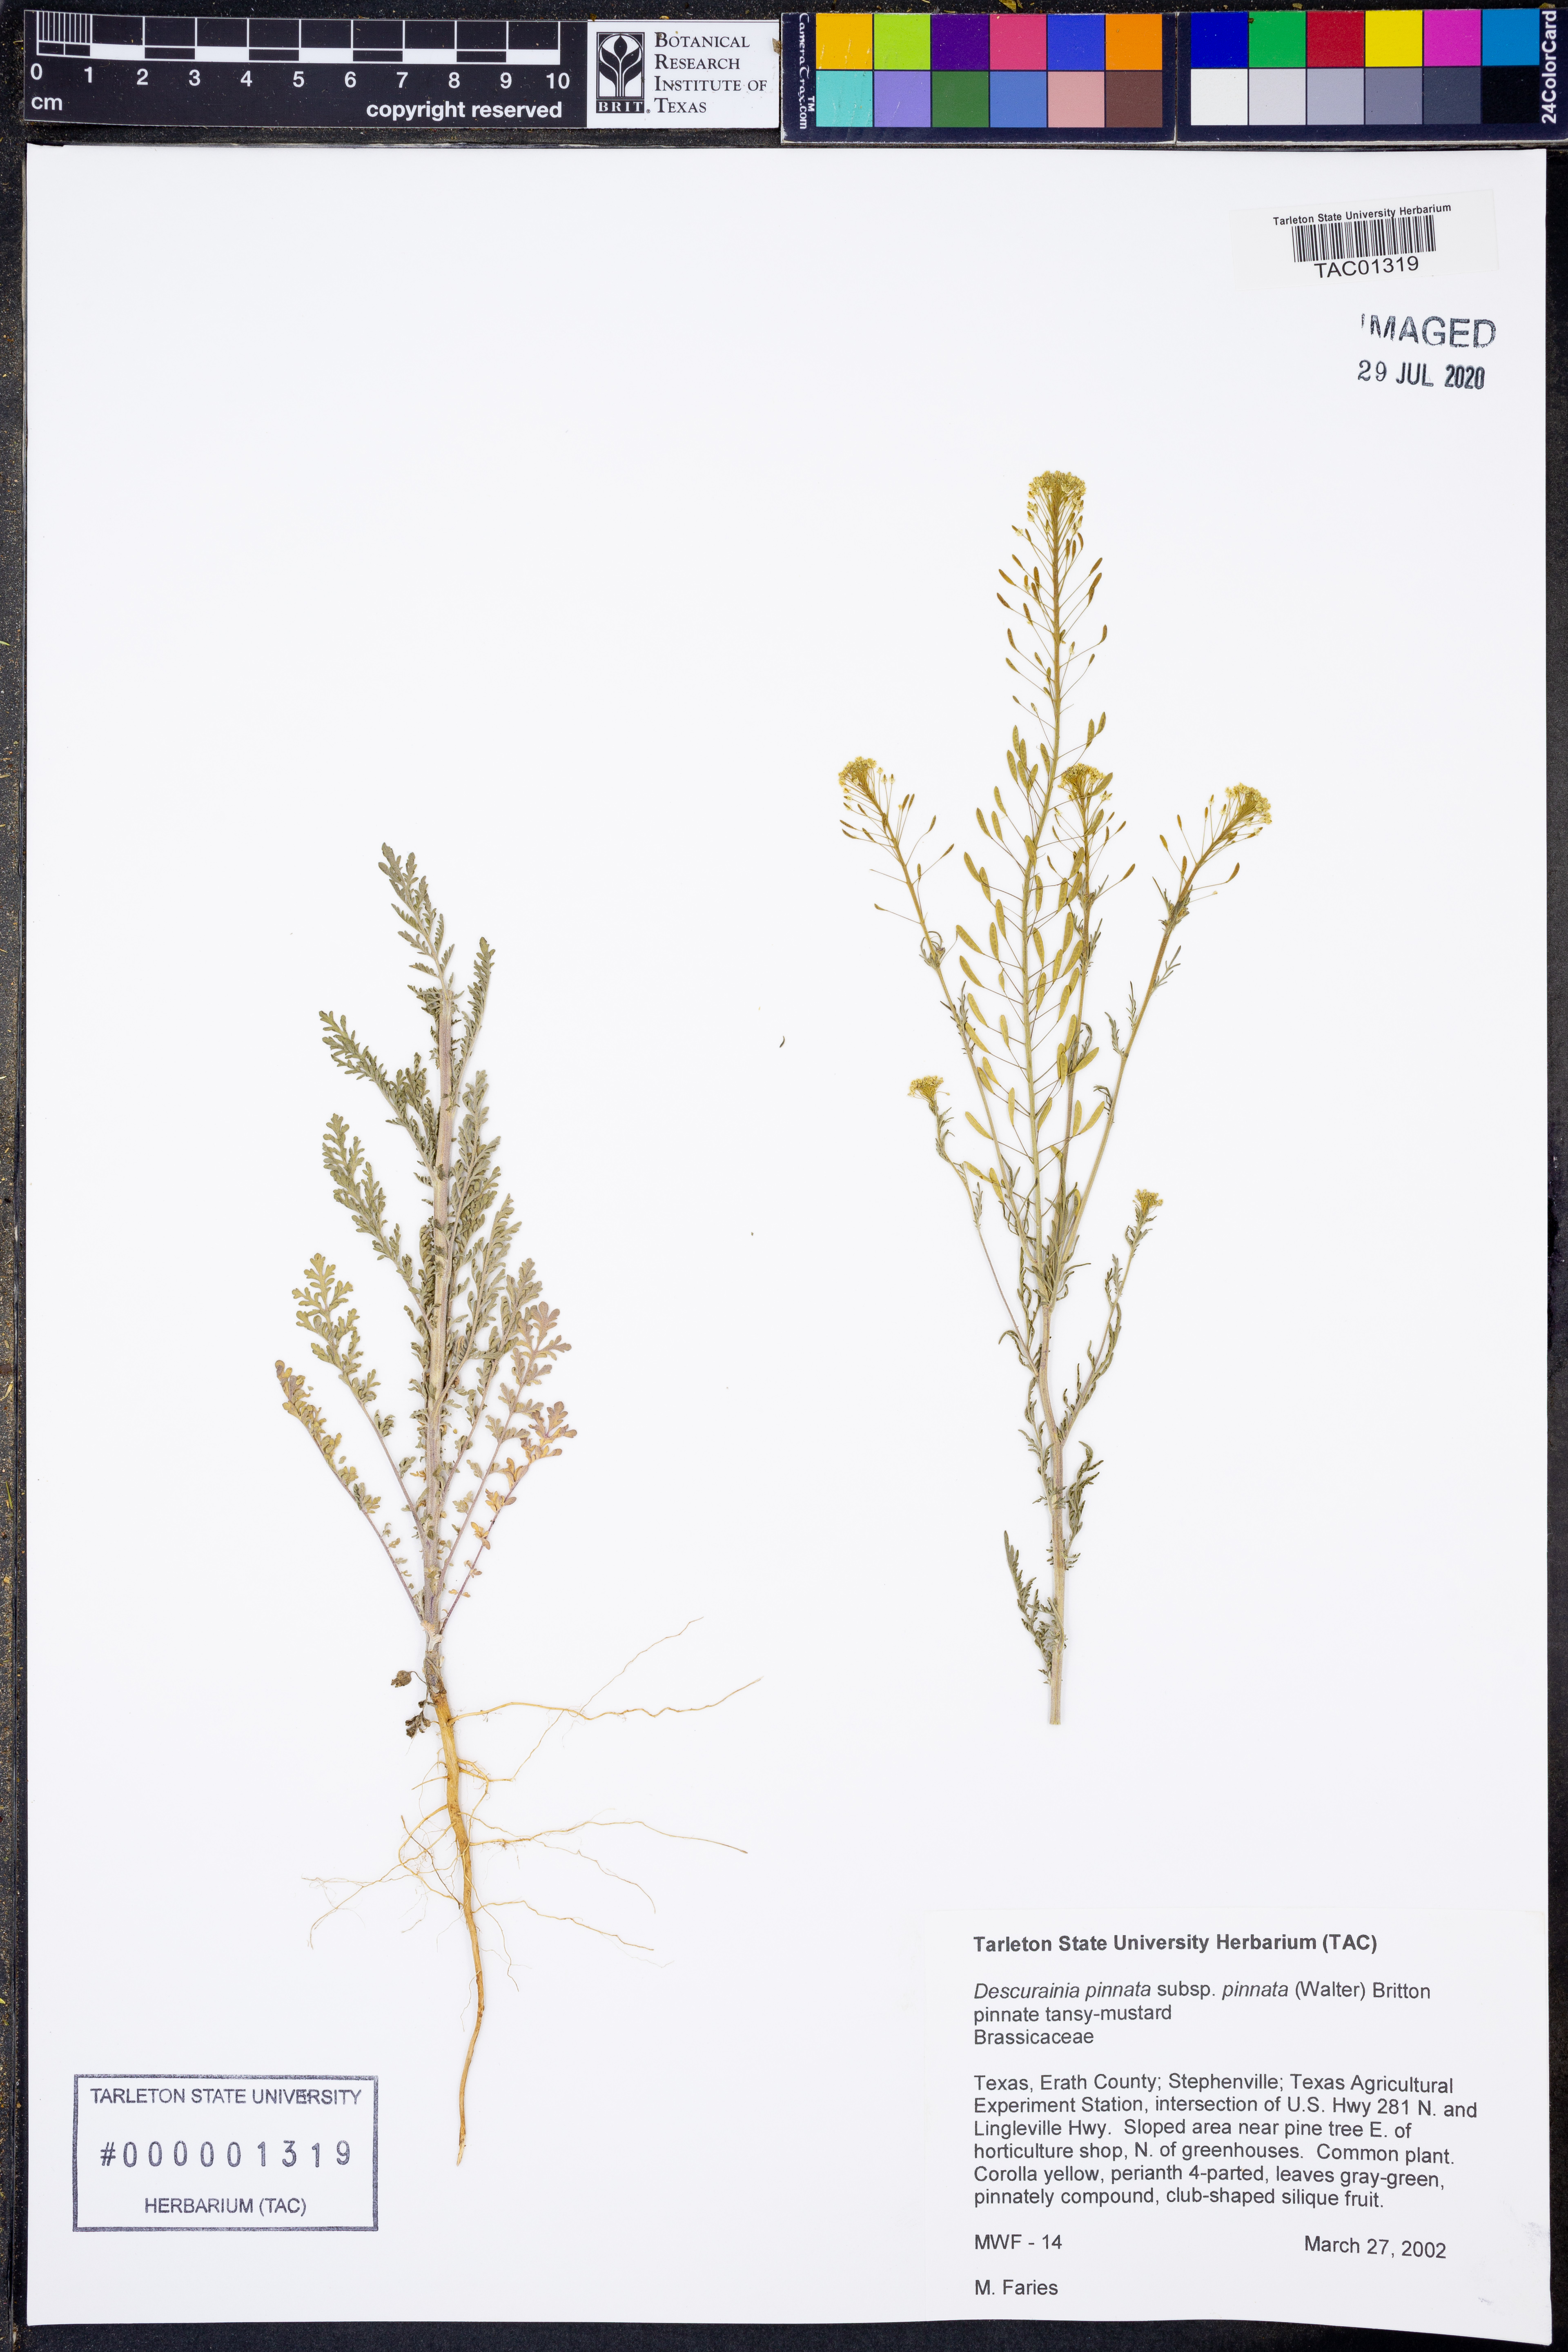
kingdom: Plantae
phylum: Tracheophyta
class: Magnoliopsida
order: Brassicales
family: Brassicaceae
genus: Descurainia
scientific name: Descurainia pinnata
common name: Western tansy mustard
